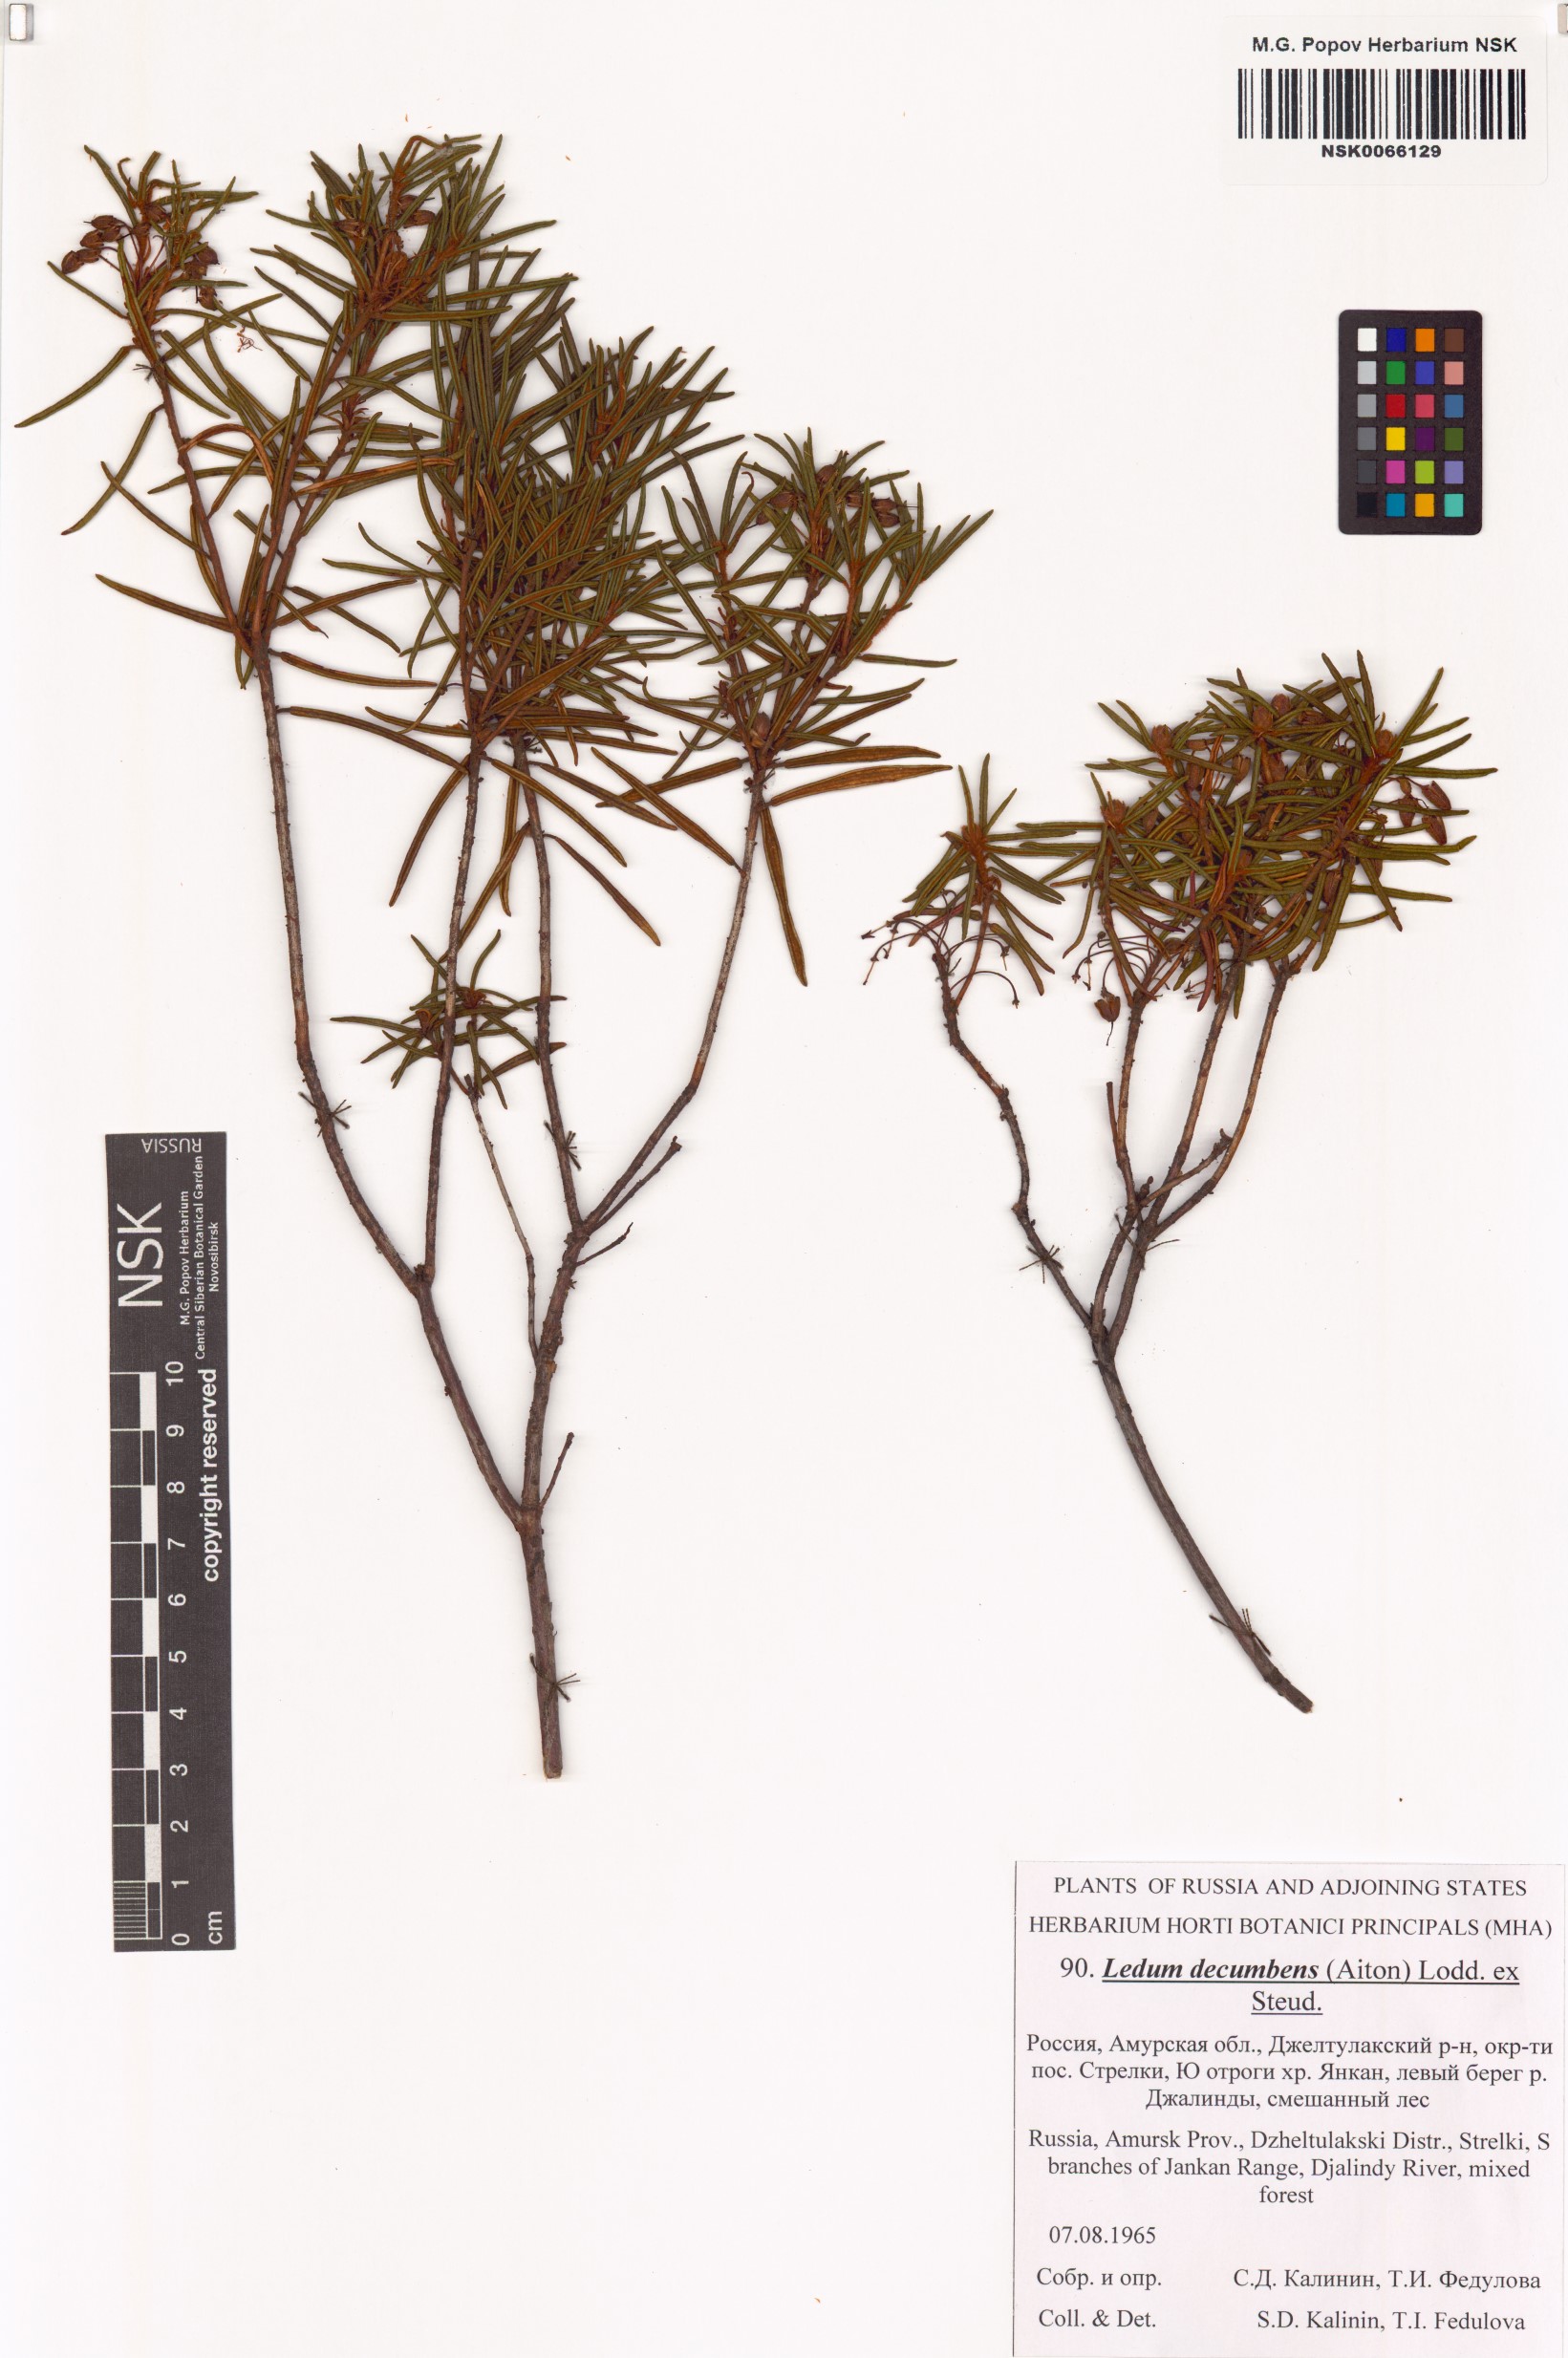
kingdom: Plantae
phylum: Tracheophyta
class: Magnoliopsida
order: Ericales
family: Ericaceae
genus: Rhododendron
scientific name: Rhododendron tomentosum
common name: Marsh labrador tea
